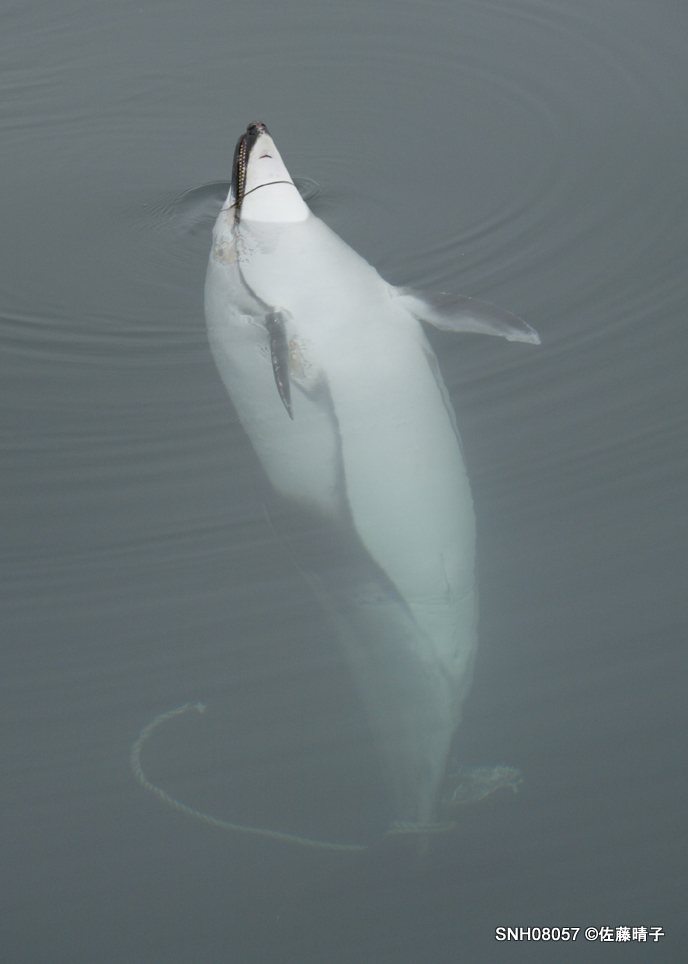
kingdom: Animalia
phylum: Chordata
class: Mammalia
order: Cetacea
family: Delphinidae
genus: Lagenorhynchus
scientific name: Lagenorhynchus obliquidens
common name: Pacific white-sided dolphin
